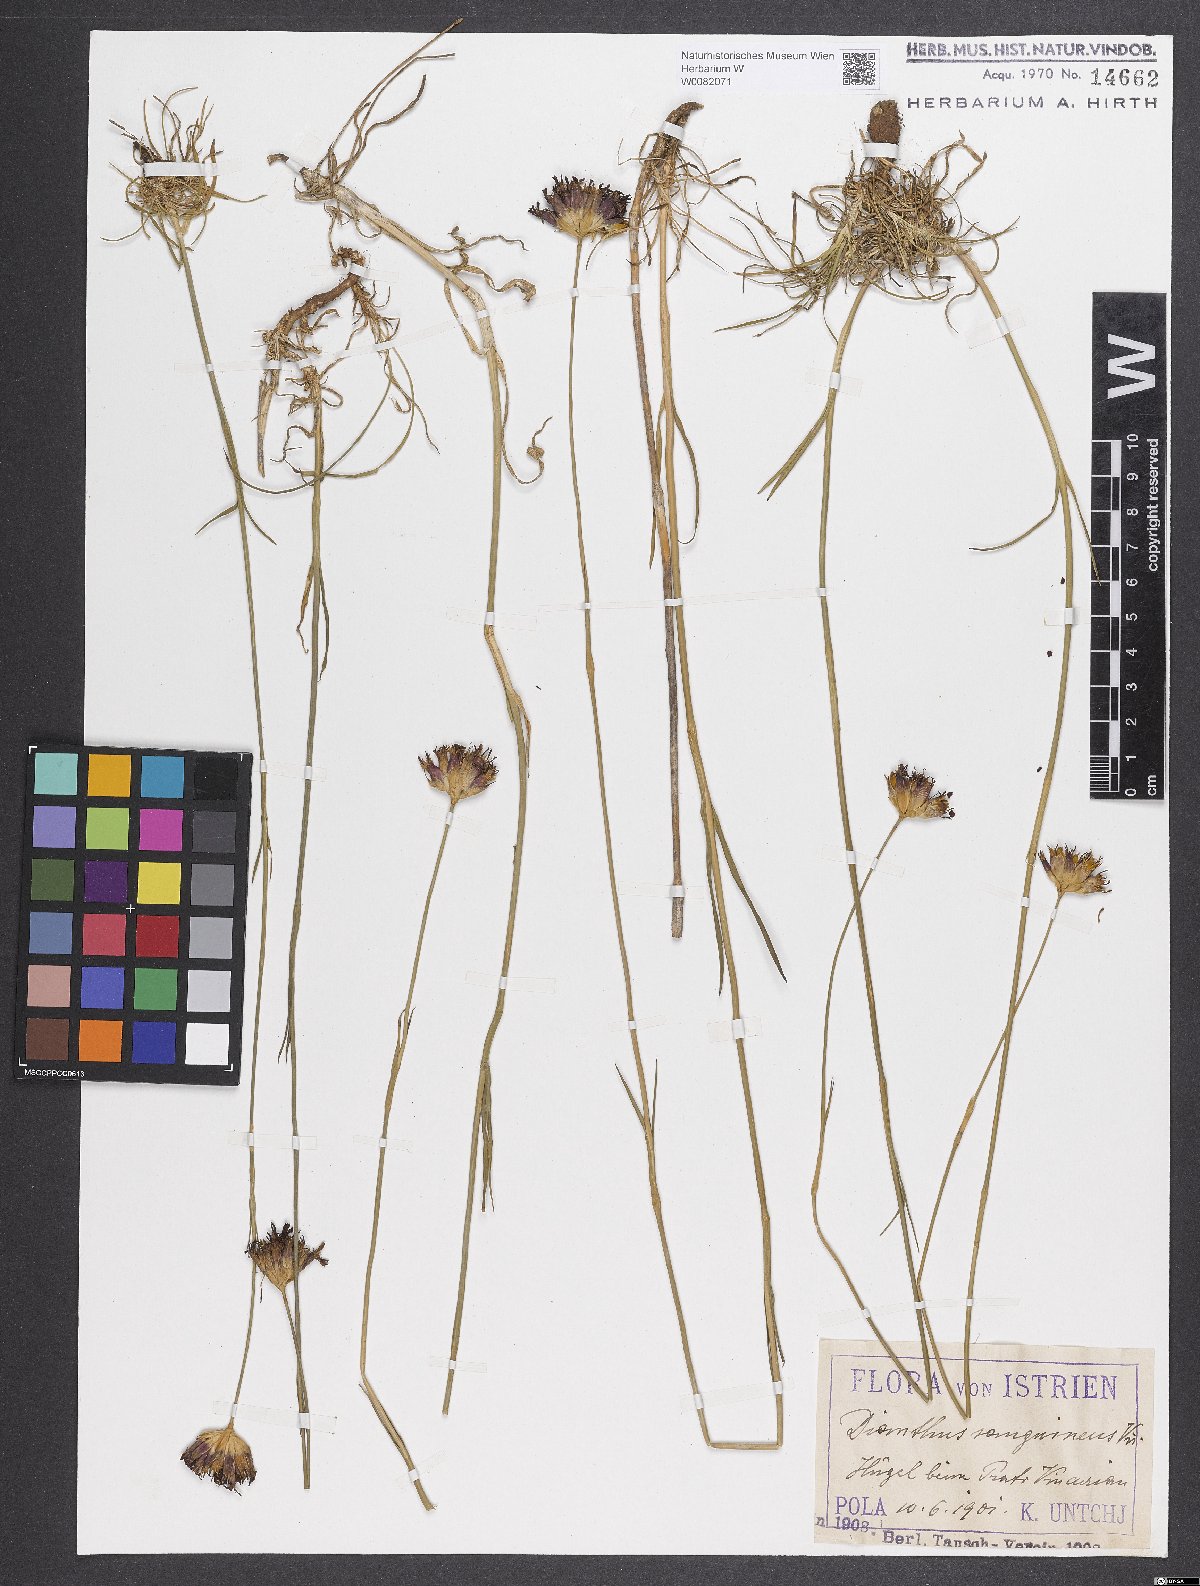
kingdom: Plantae
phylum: Tracheophyta
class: Magnoliopsida
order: Caryophyllales
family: Caryophyllaceae
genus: Dianthus
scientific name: Dianthus carthusianorum
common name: Carthusian pink
